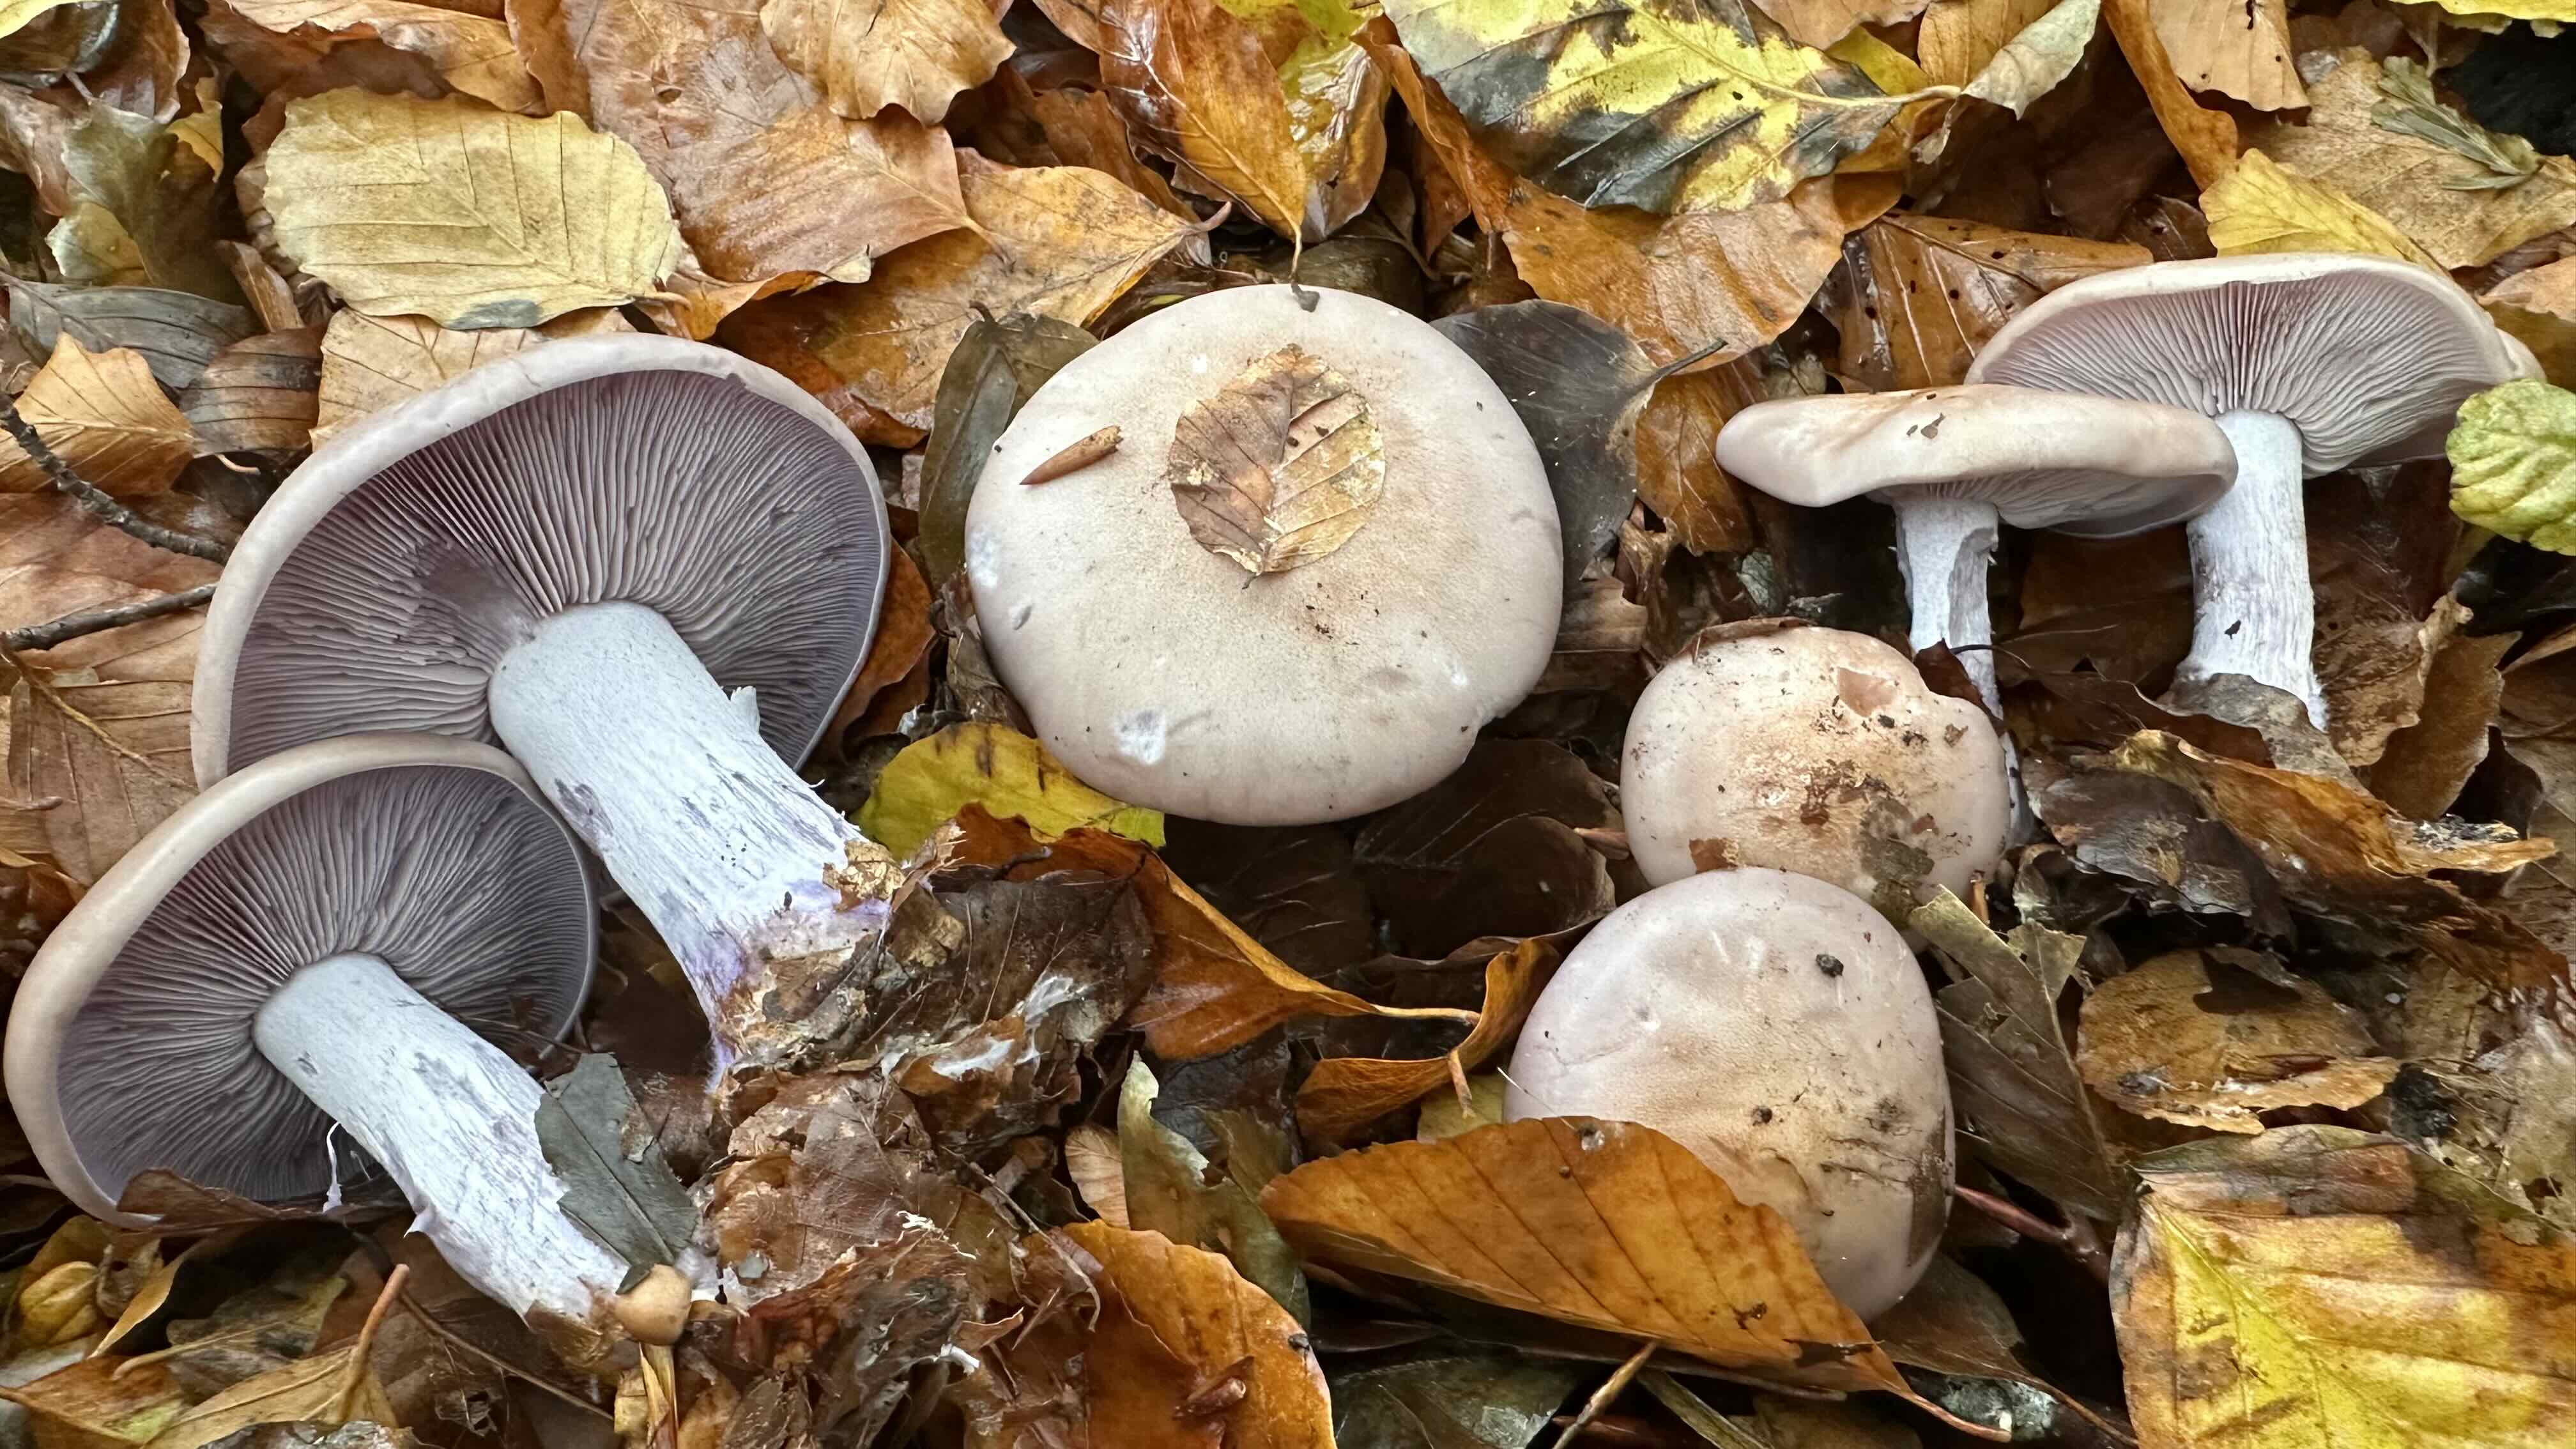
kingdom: Fungi
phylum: Basidiomycota
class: Agaricomycetes
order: Agaricales
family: Tricholomataceae
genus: Lepista
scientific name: Lepista nuda
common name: violet hekseringshat
